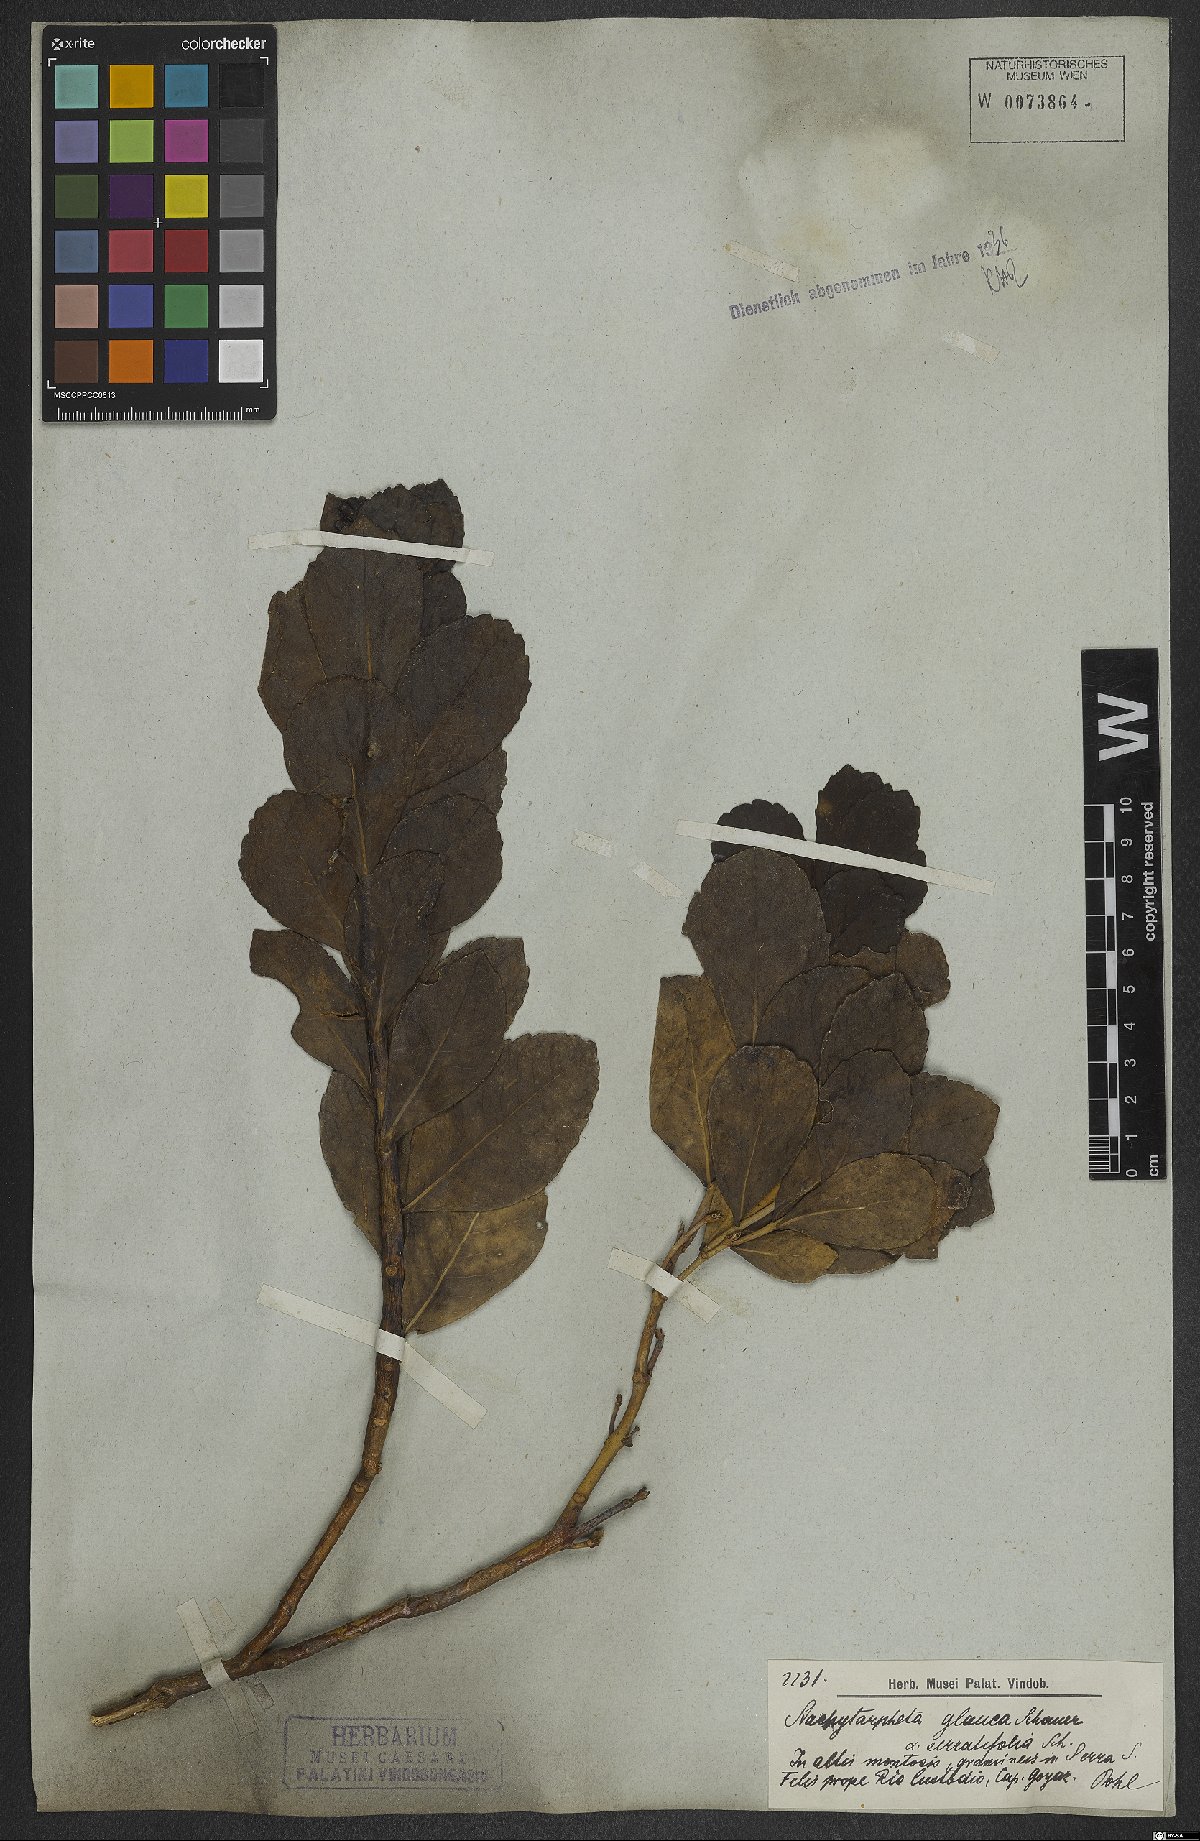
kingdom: Plantae
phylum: Tracheophyta
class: Magnoliopsida
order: Lamiales
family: Verbenaceae
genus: Stachytarpheta
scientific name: Stachytarpheta glauca
